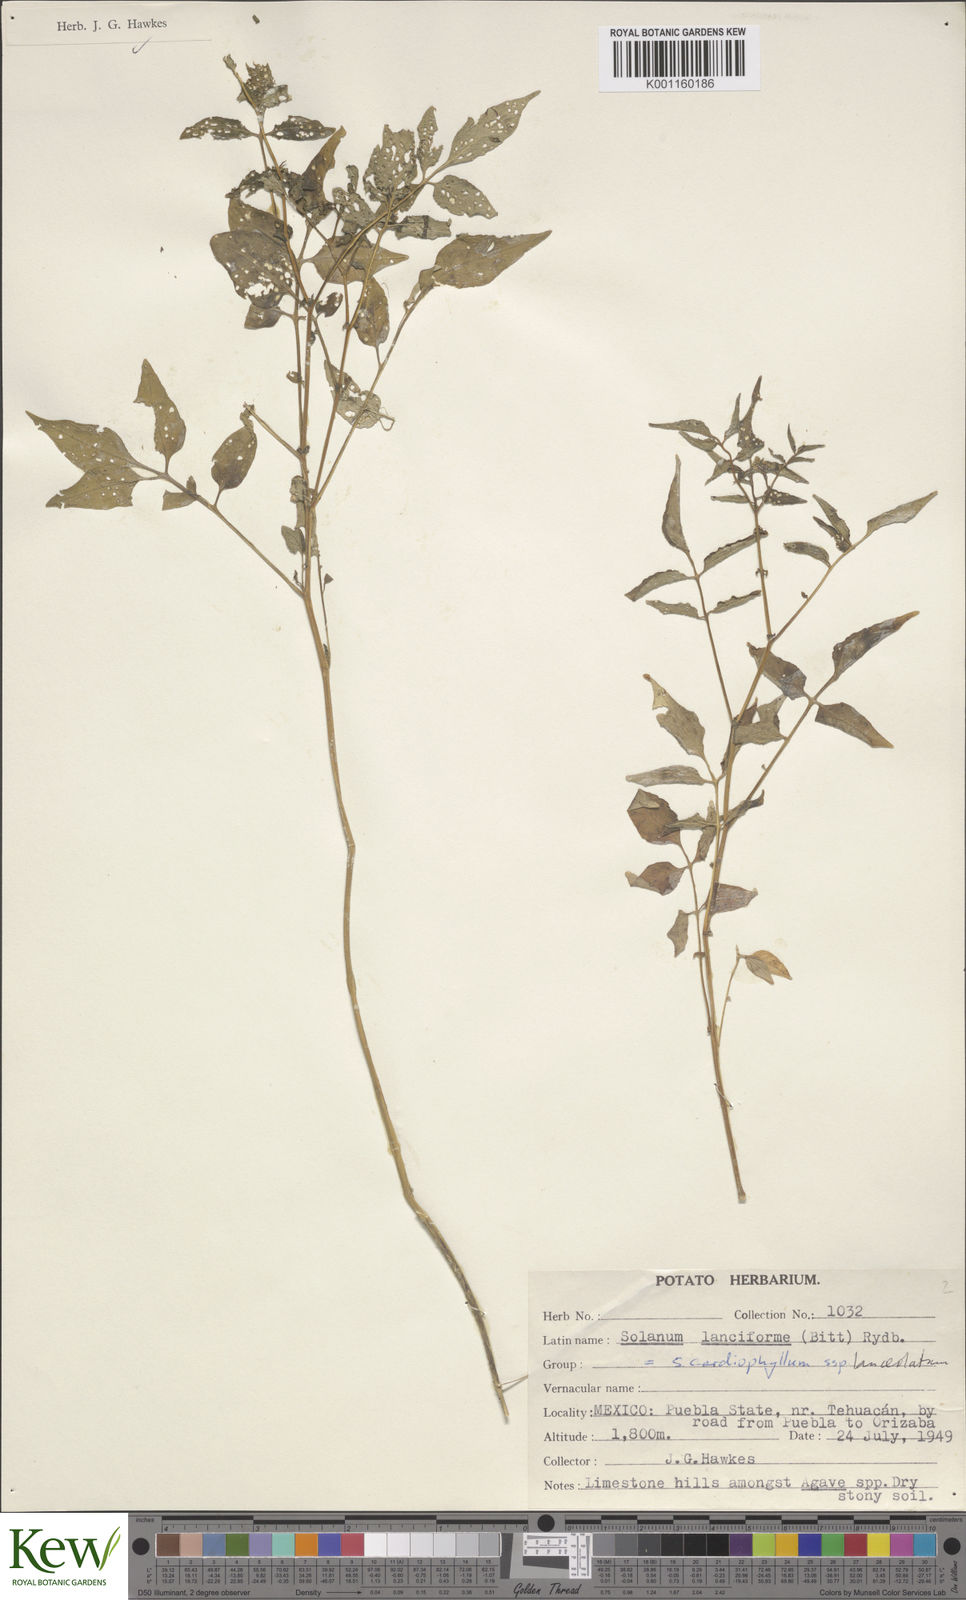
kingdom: Plantae
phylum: Tracheophyta
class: Magnoliopsida
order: Solanales
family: Solanaceae
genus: Solanum
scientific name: Solanum cardiophyllum
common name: Heartleaf horsenettle
